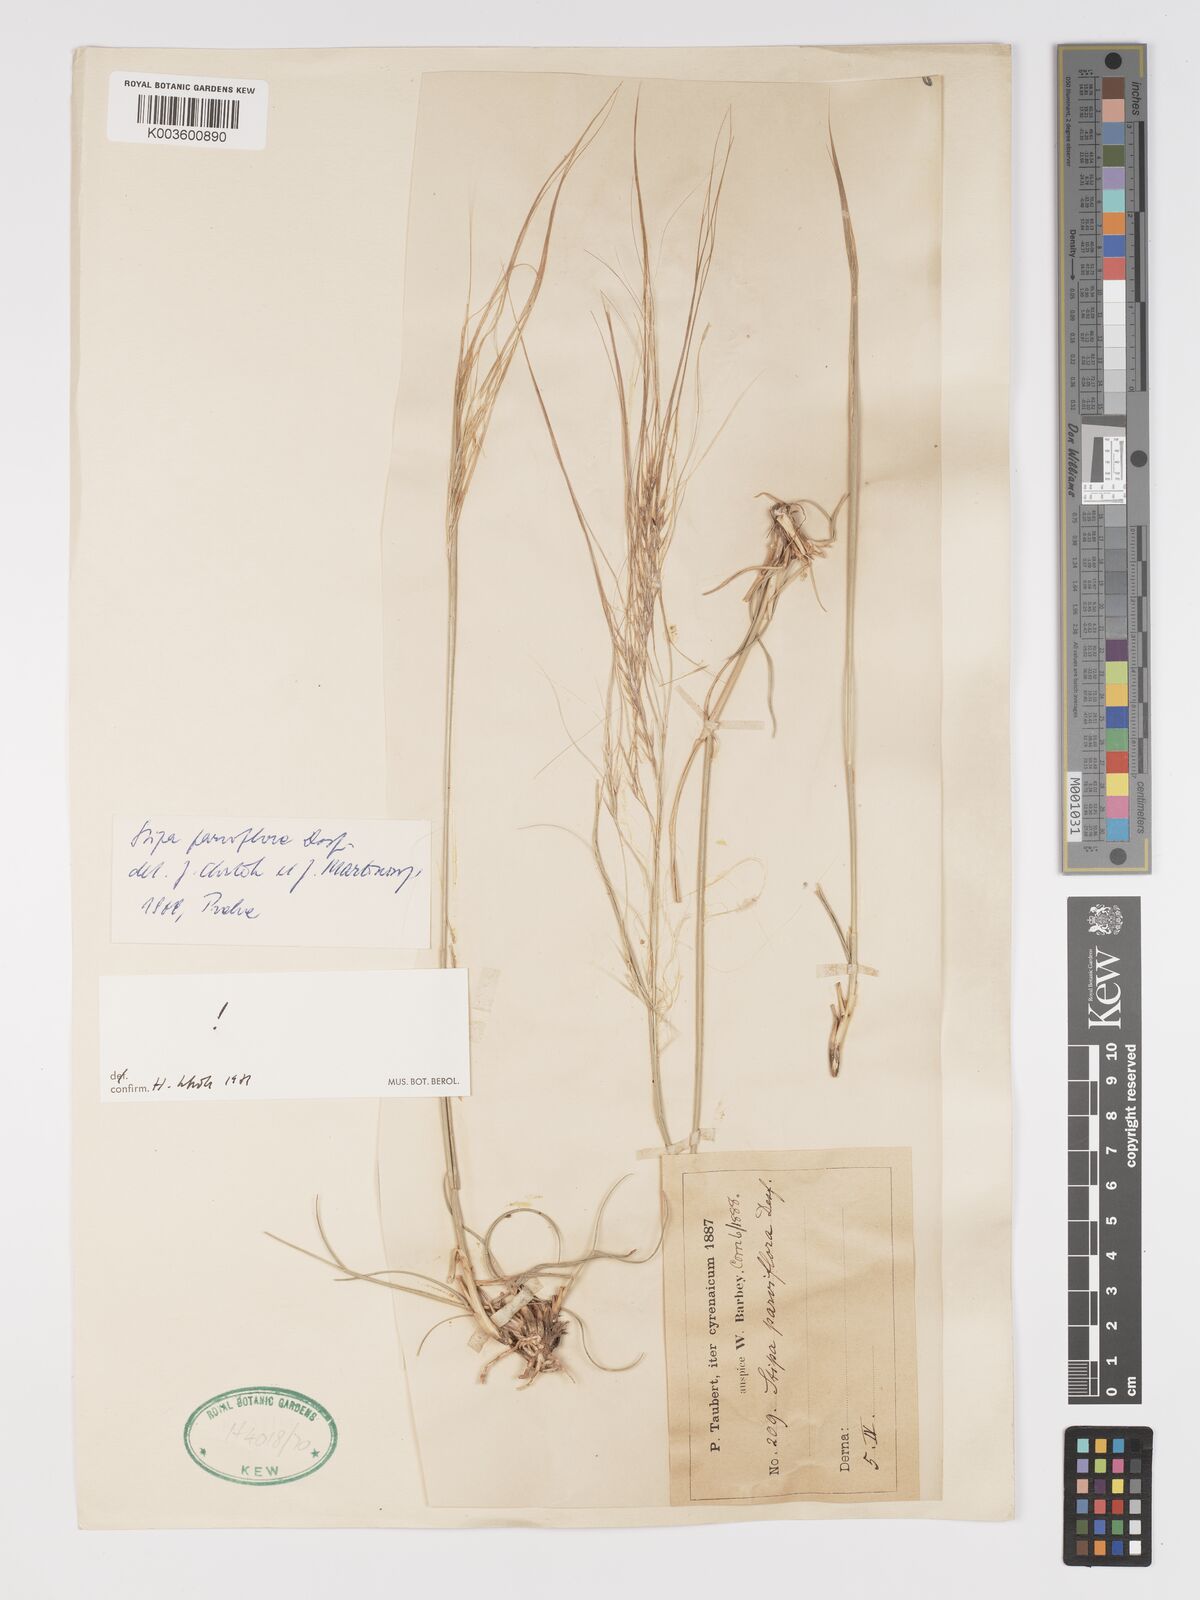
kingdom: Plantae
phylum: Tracheophyta
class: Liliopsida
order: Poales
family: Poaceae
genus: Achnatherum
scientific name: Achnatherum parviflorum
